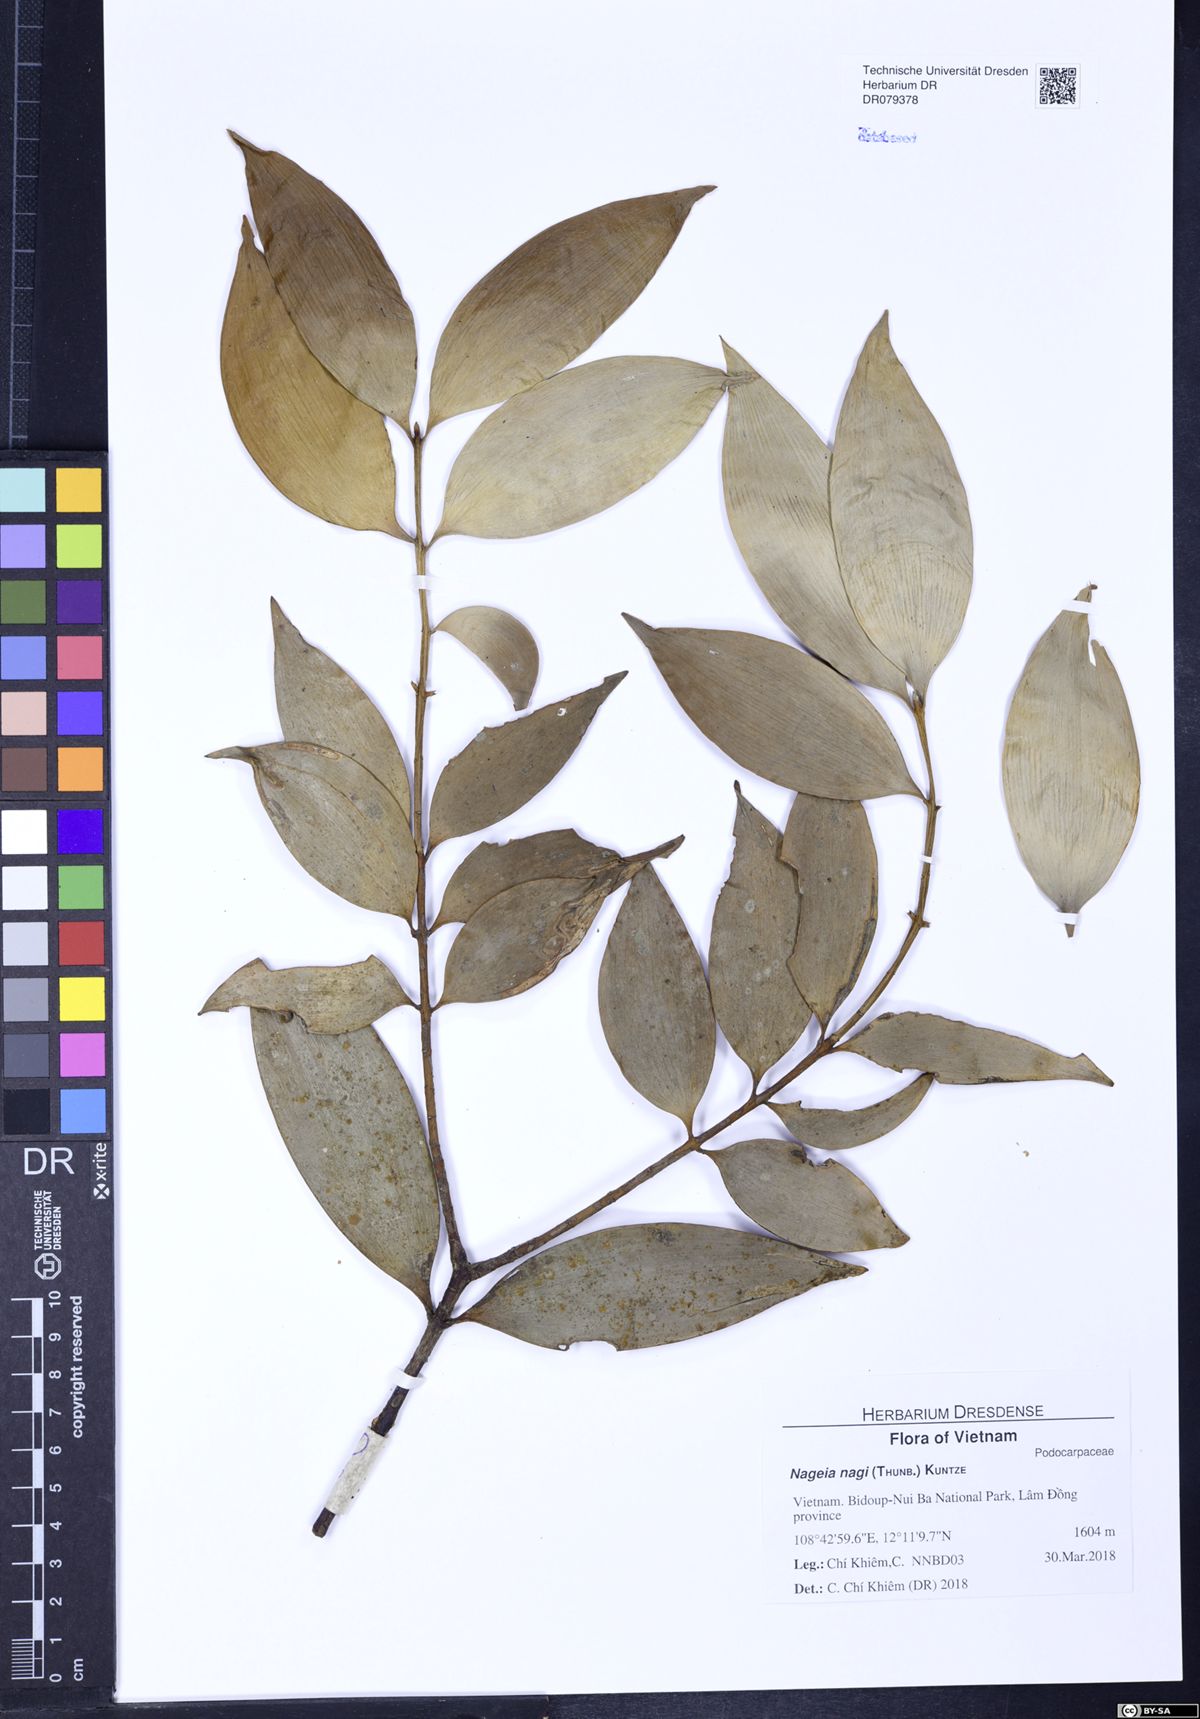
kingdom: Plantae
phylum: Tracheophyta
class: Pinopsida
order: Pinales
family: Podocarpaceae
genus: Nageia
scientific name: Nageia nagi
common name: Kaphal
